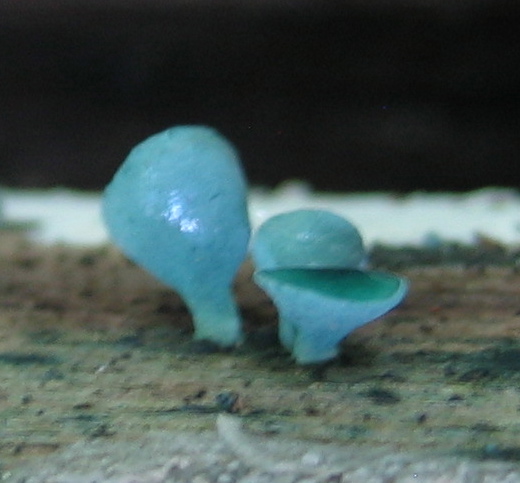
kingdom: Fungi
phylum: Ascomycota
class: Leotiomycetes
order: Helotiales
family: Chlorociboriaceae
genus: Chlorociboria
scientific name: Chlorociboria aeruginascens
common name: almindelig grønskive
